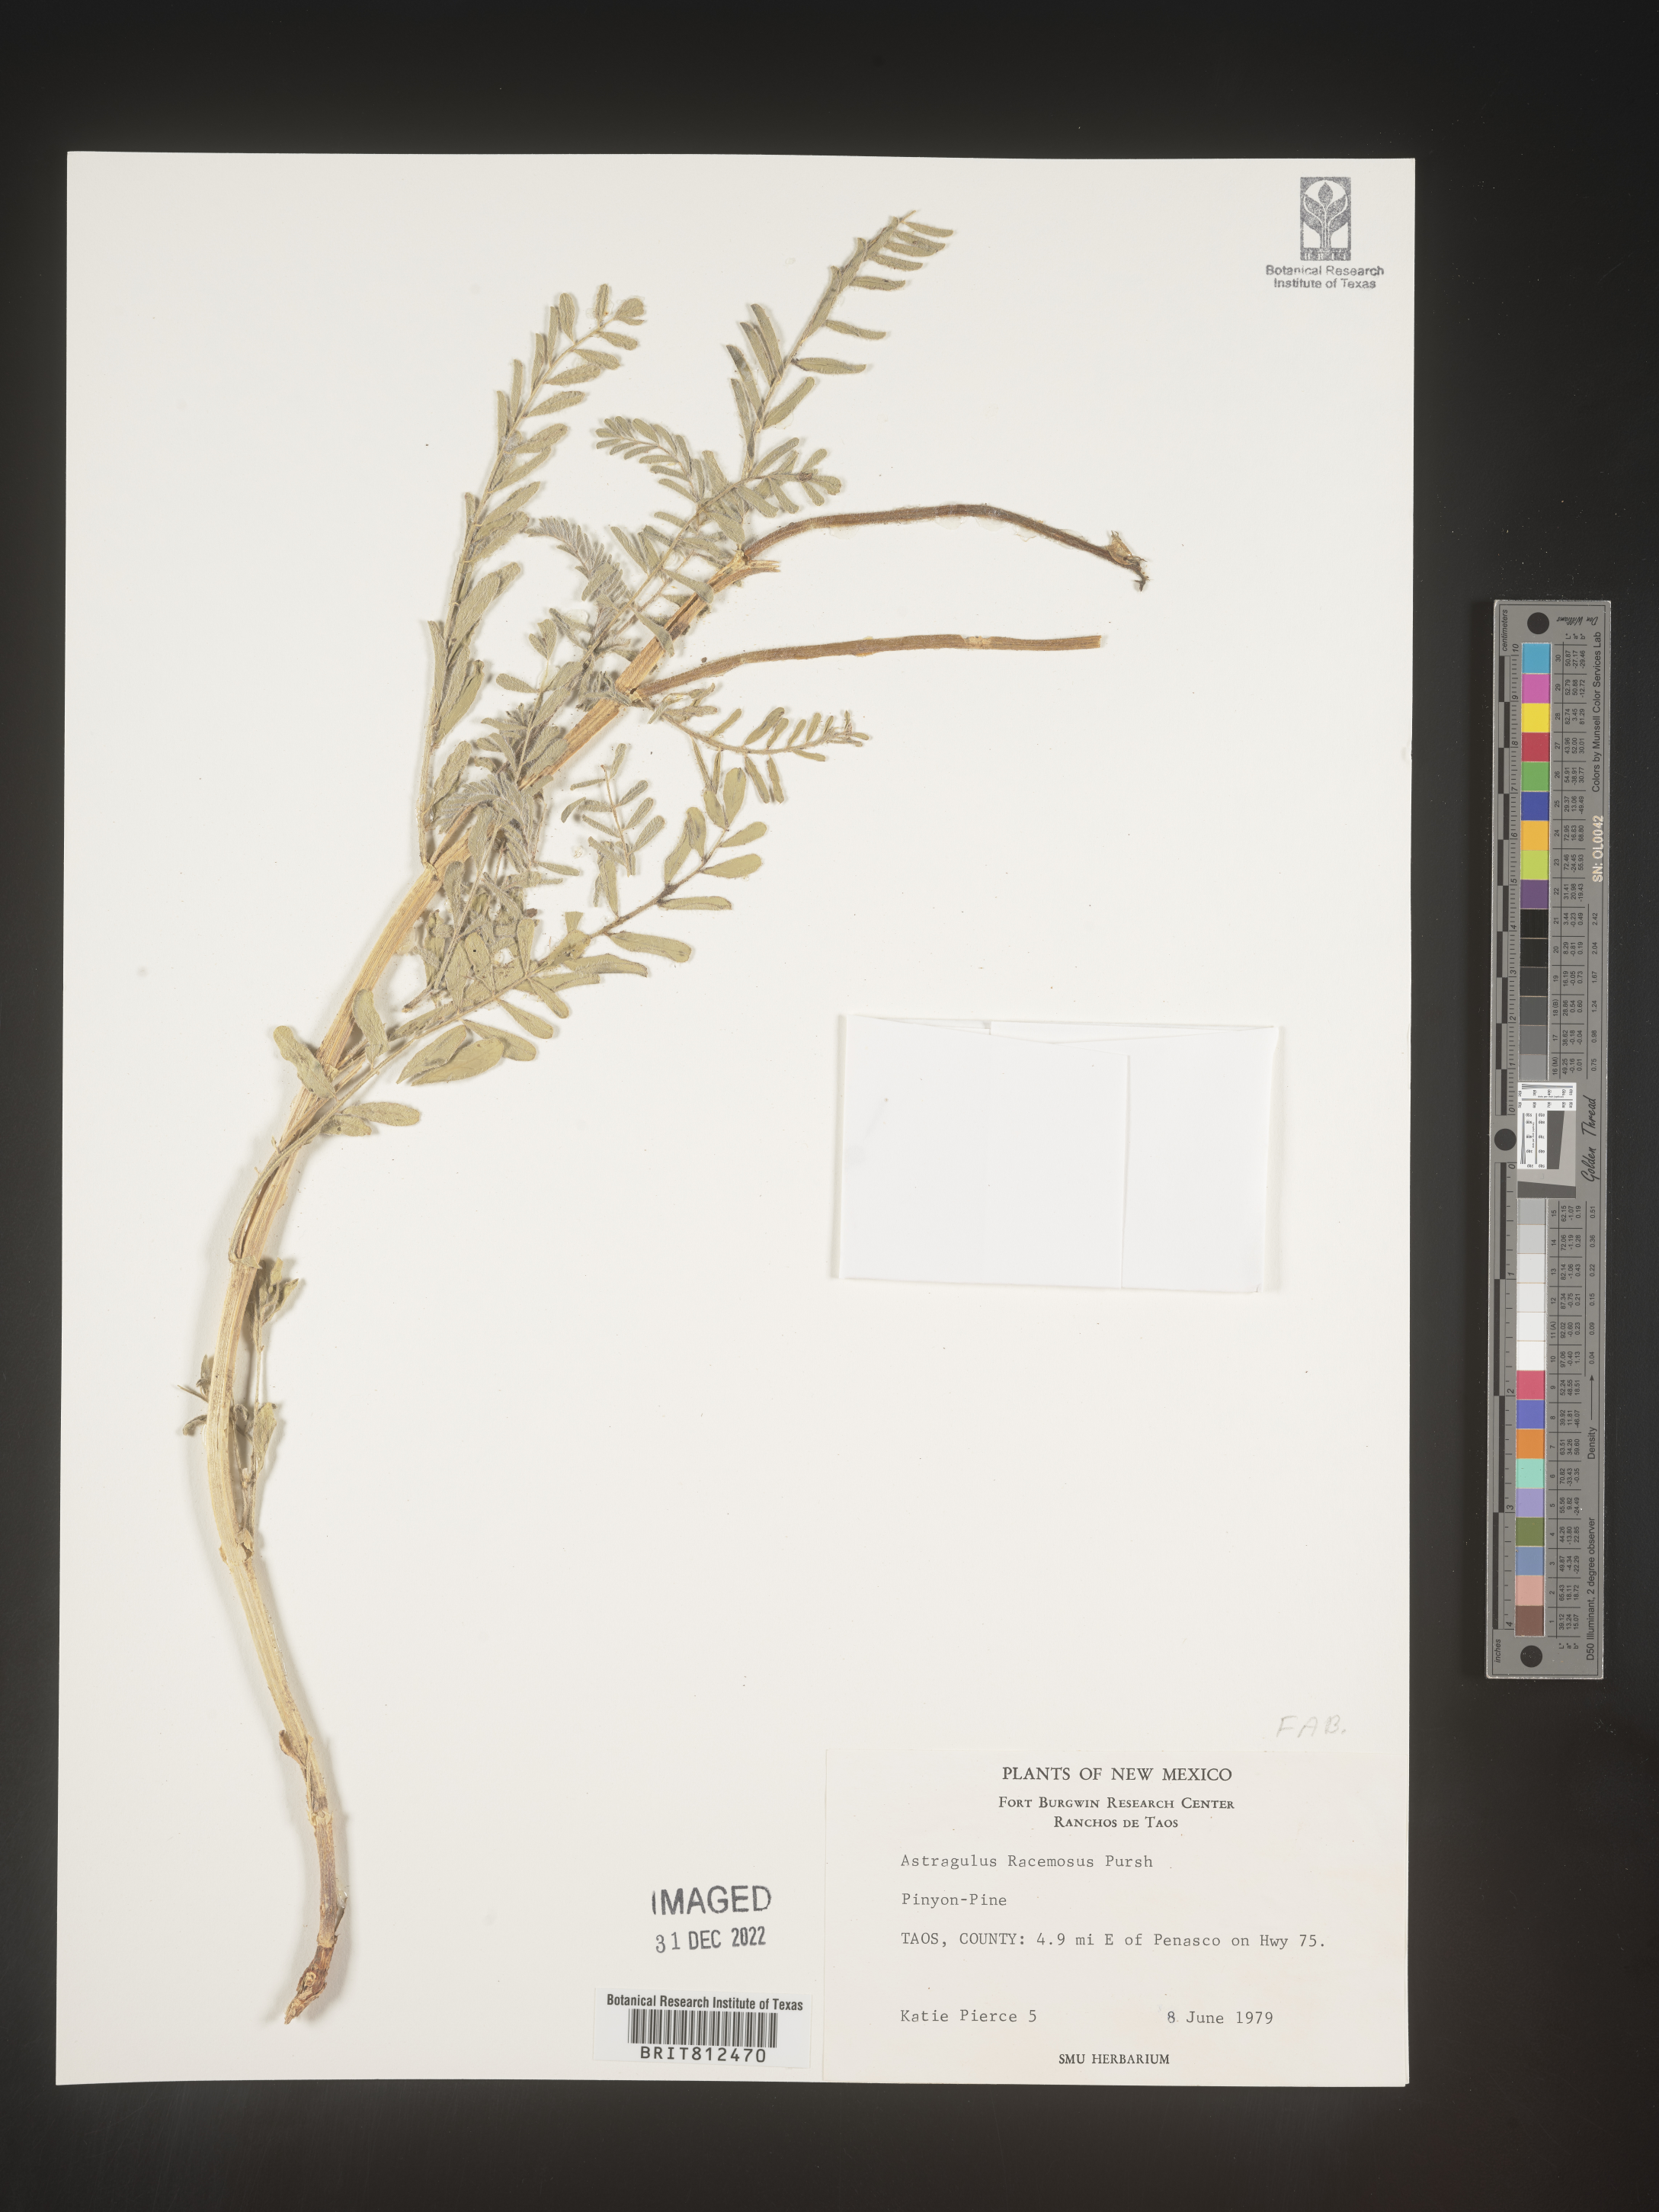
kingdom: Plantae
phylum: Tracheophyta
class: Magnoliopsida
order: Fabales
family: Fabaceae
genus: Astragalus
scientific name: Astragalus racemosus
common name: Alkali milk-vetch
